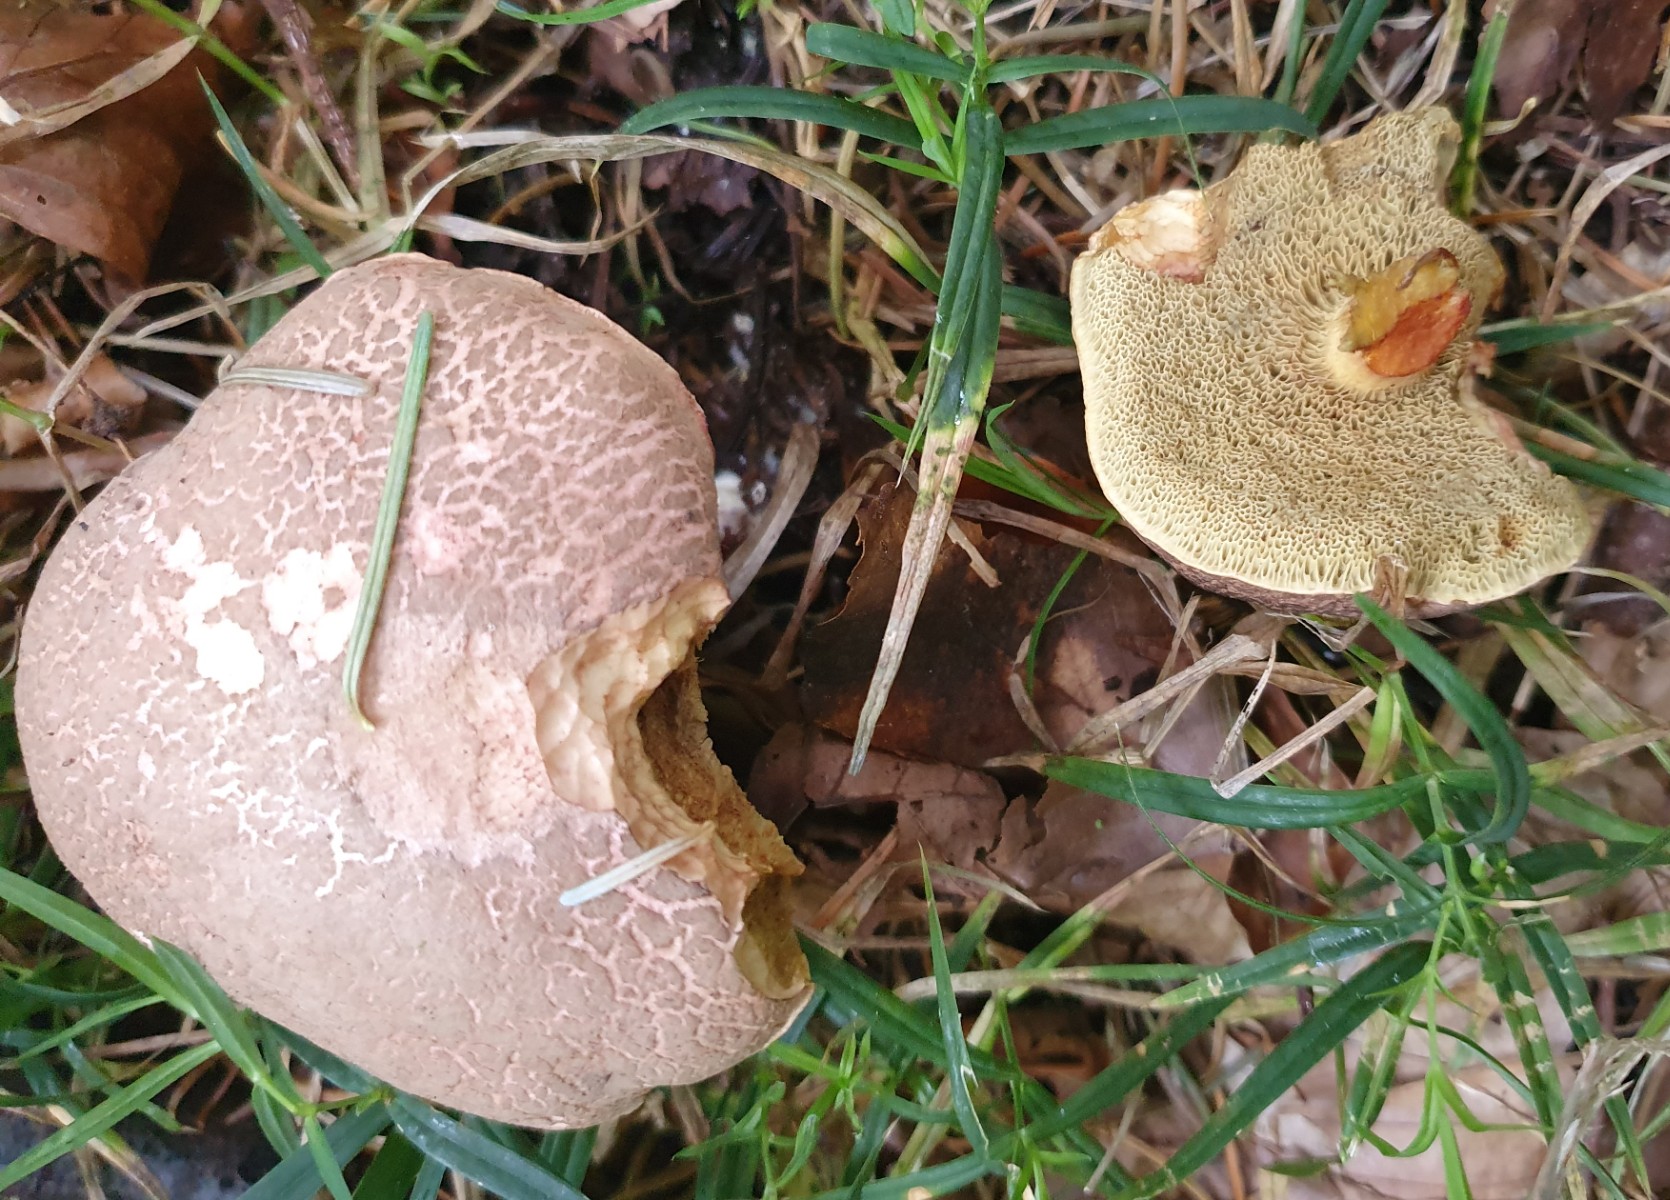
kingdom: Fungi
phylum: Basidiomycota
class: Agaricomycetes
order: Boletales
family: Boletaceae
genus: Xerocomellus
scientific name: Xerocomellus
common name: dværgrørhat
